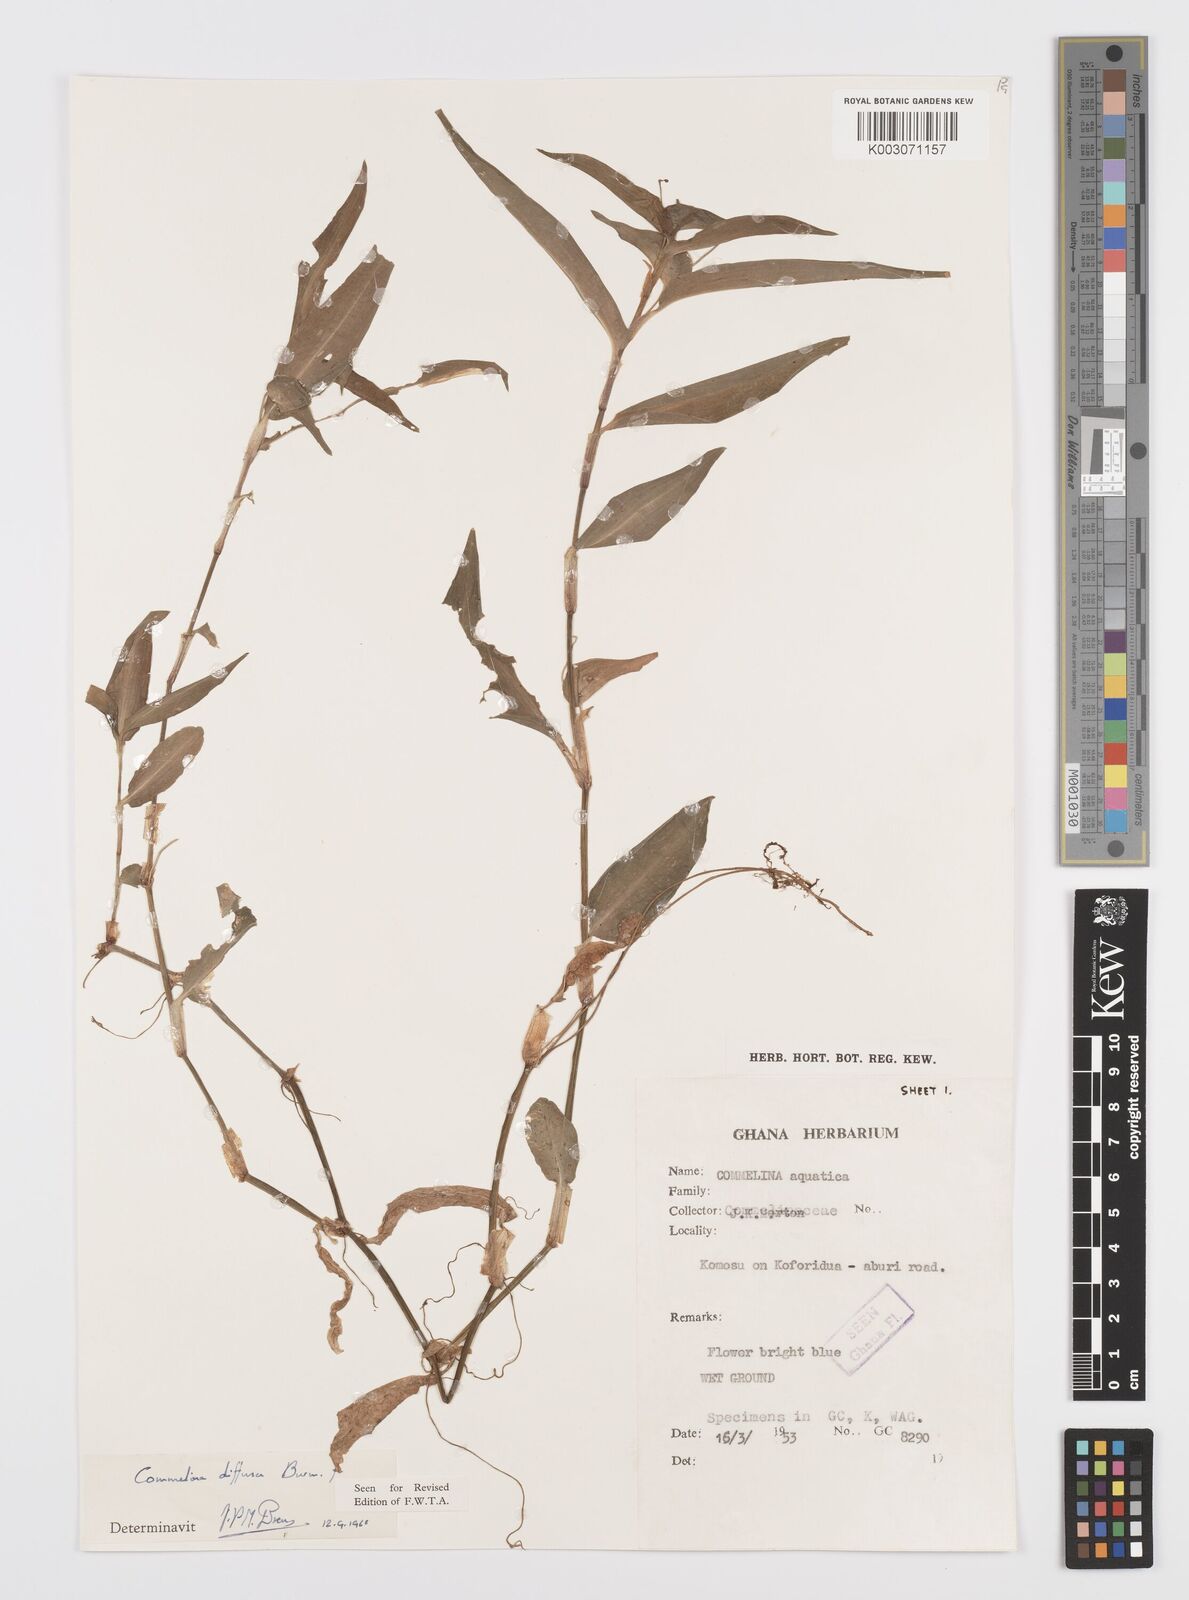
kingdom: Plantae
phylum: Tracheophyta
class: Liliopsida
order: Commelinales
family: Commelinaceae
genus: Commelina
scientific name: Commelina diffusa
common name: Climbing dayflower
